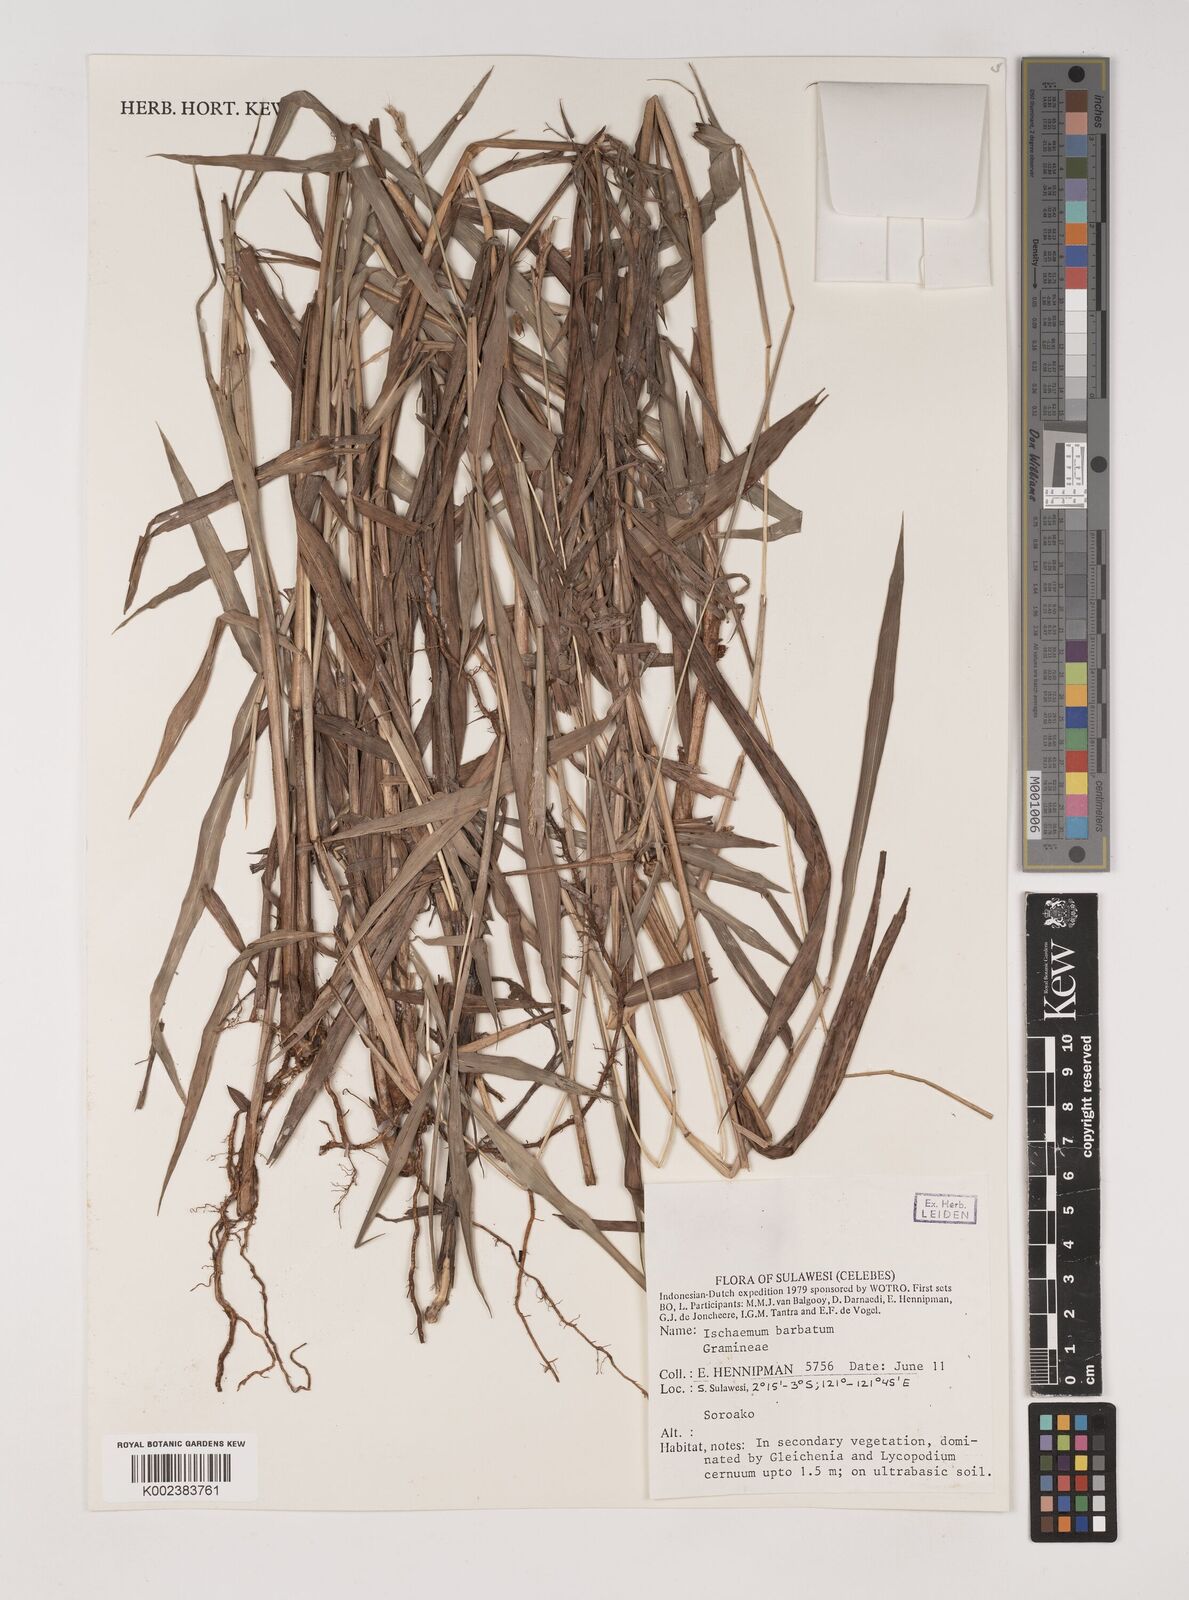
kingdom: Plantae
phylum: Tracheophyta
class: Liliopsida
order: Poales
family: Poaceae
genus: Ischaemum
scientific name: Ischaemum barbatum
